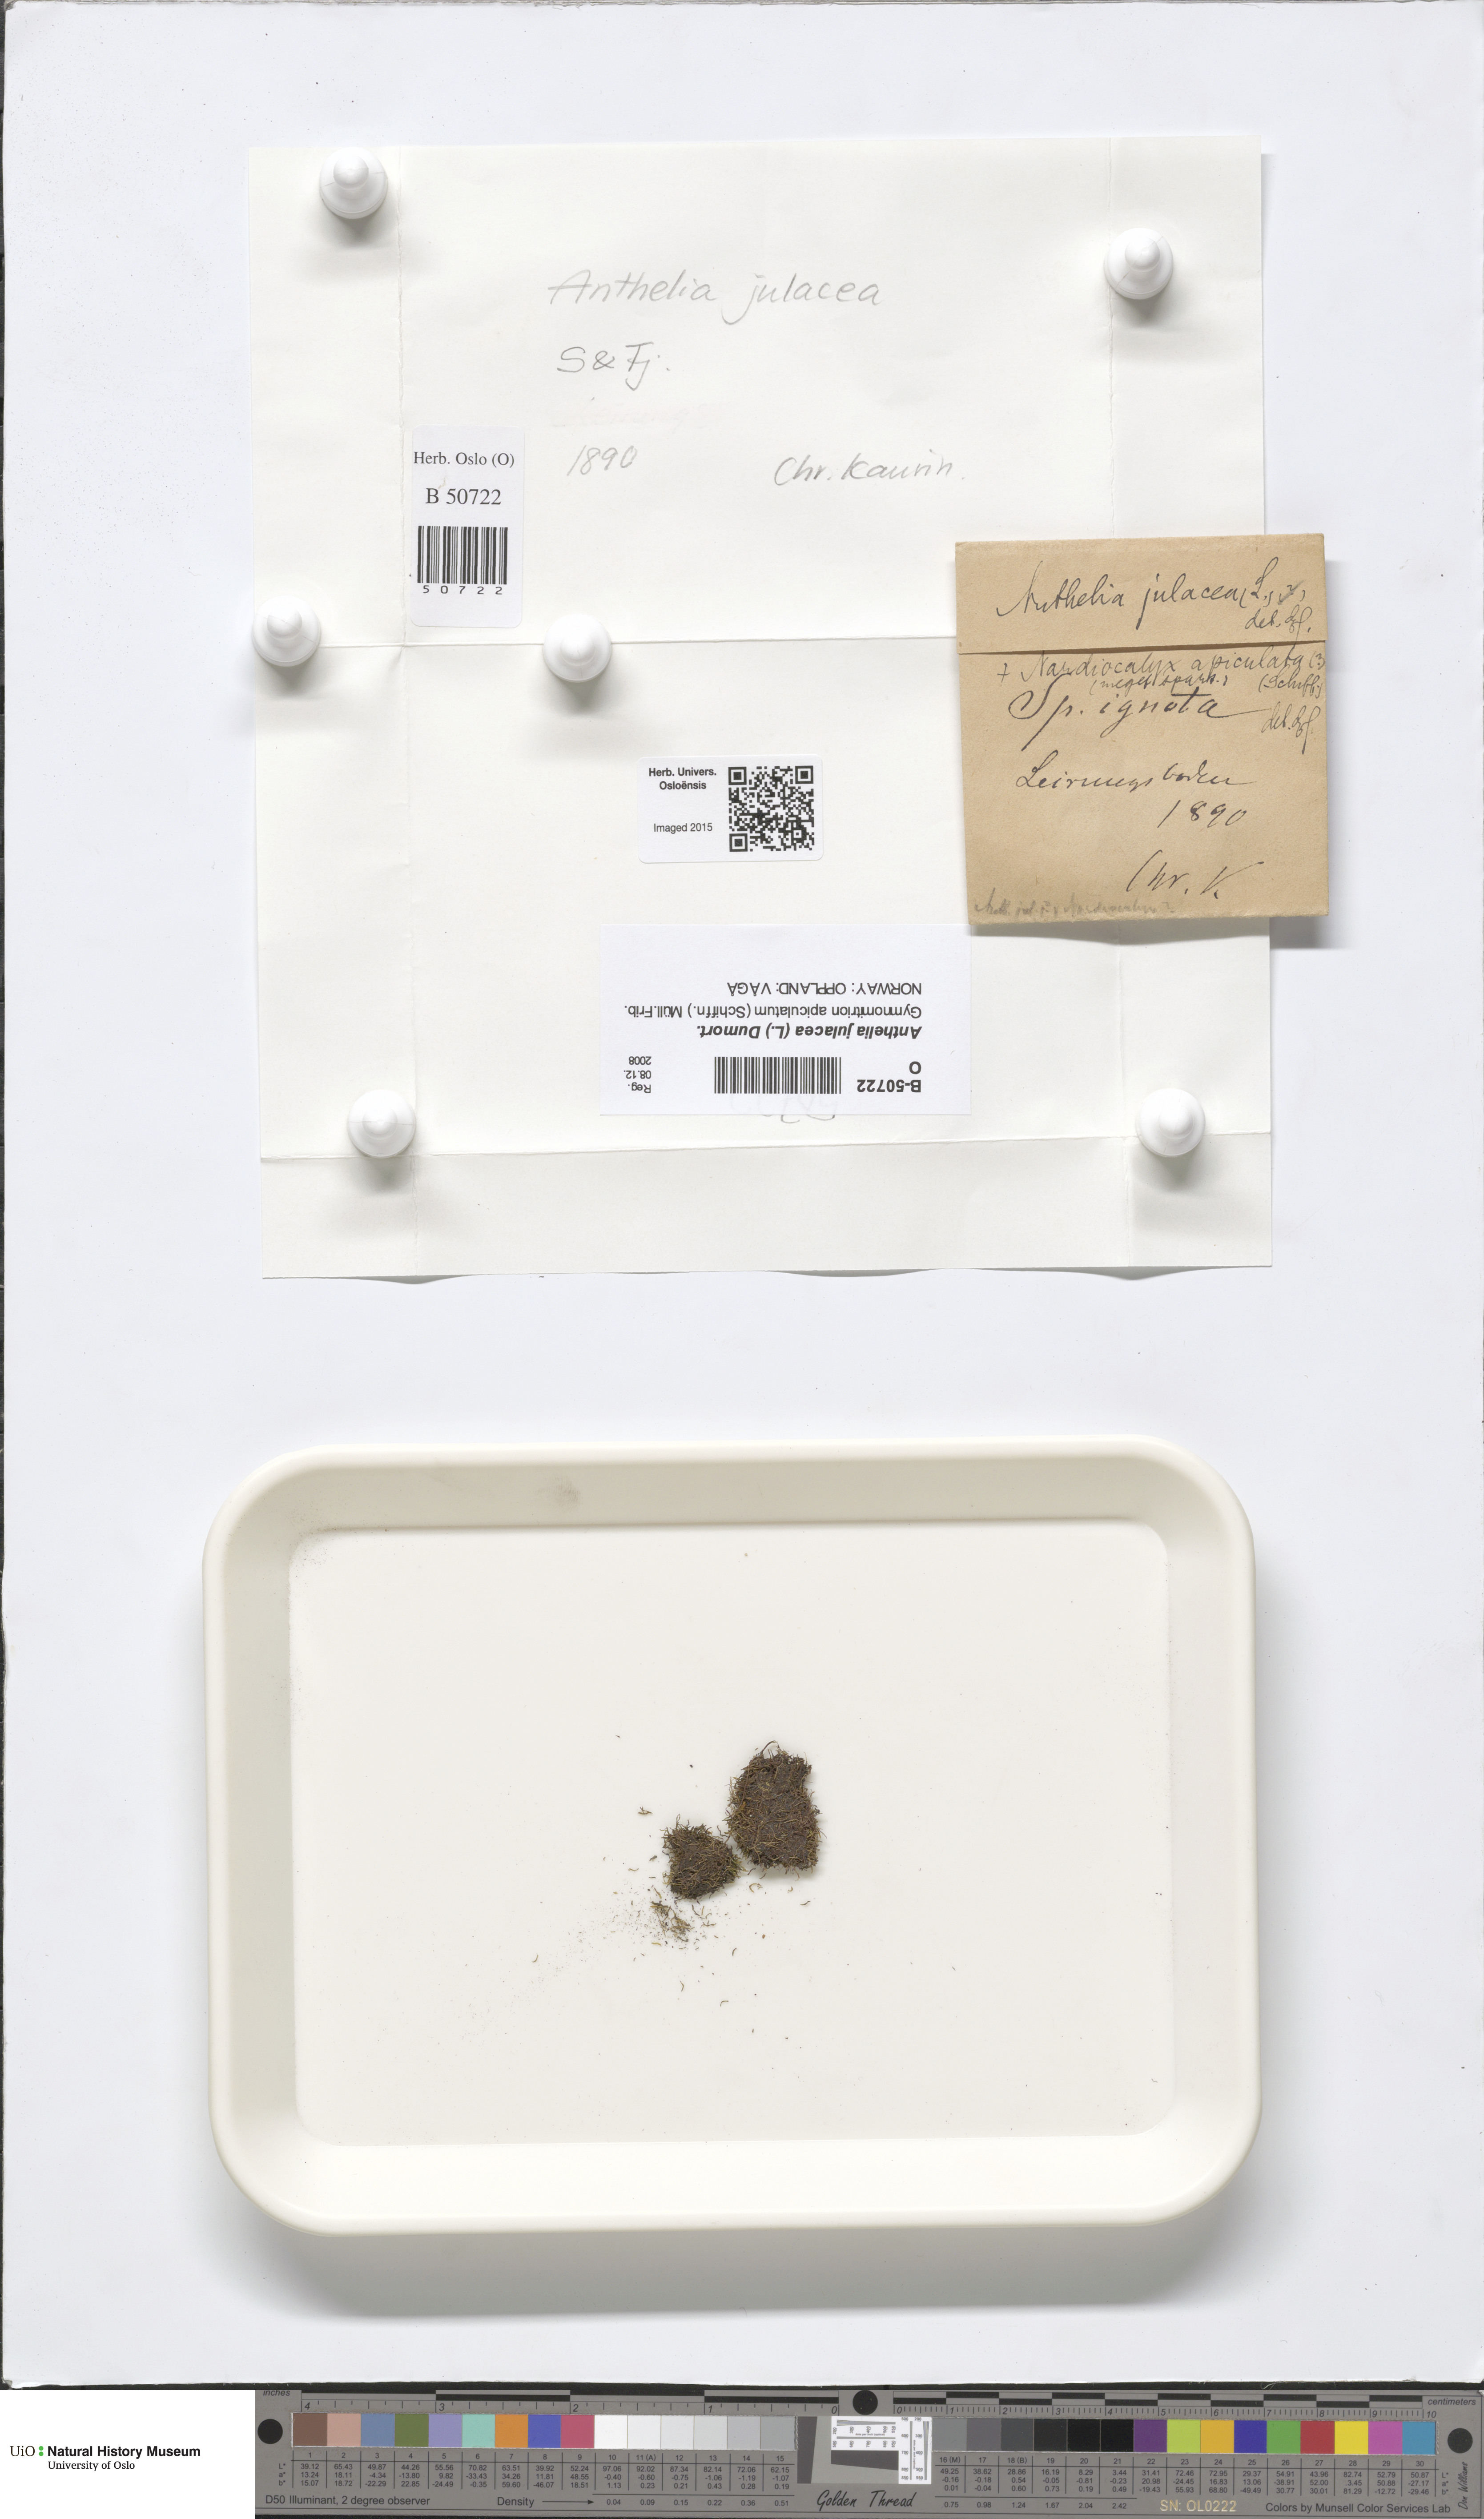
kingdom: Plantae
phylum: Marchantiophyta
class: Jungermanniopsida
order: Jungermanniales
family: Antheliaceae
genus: Anthelia
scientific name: Anthelia julacea
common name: Alpine silverwort
